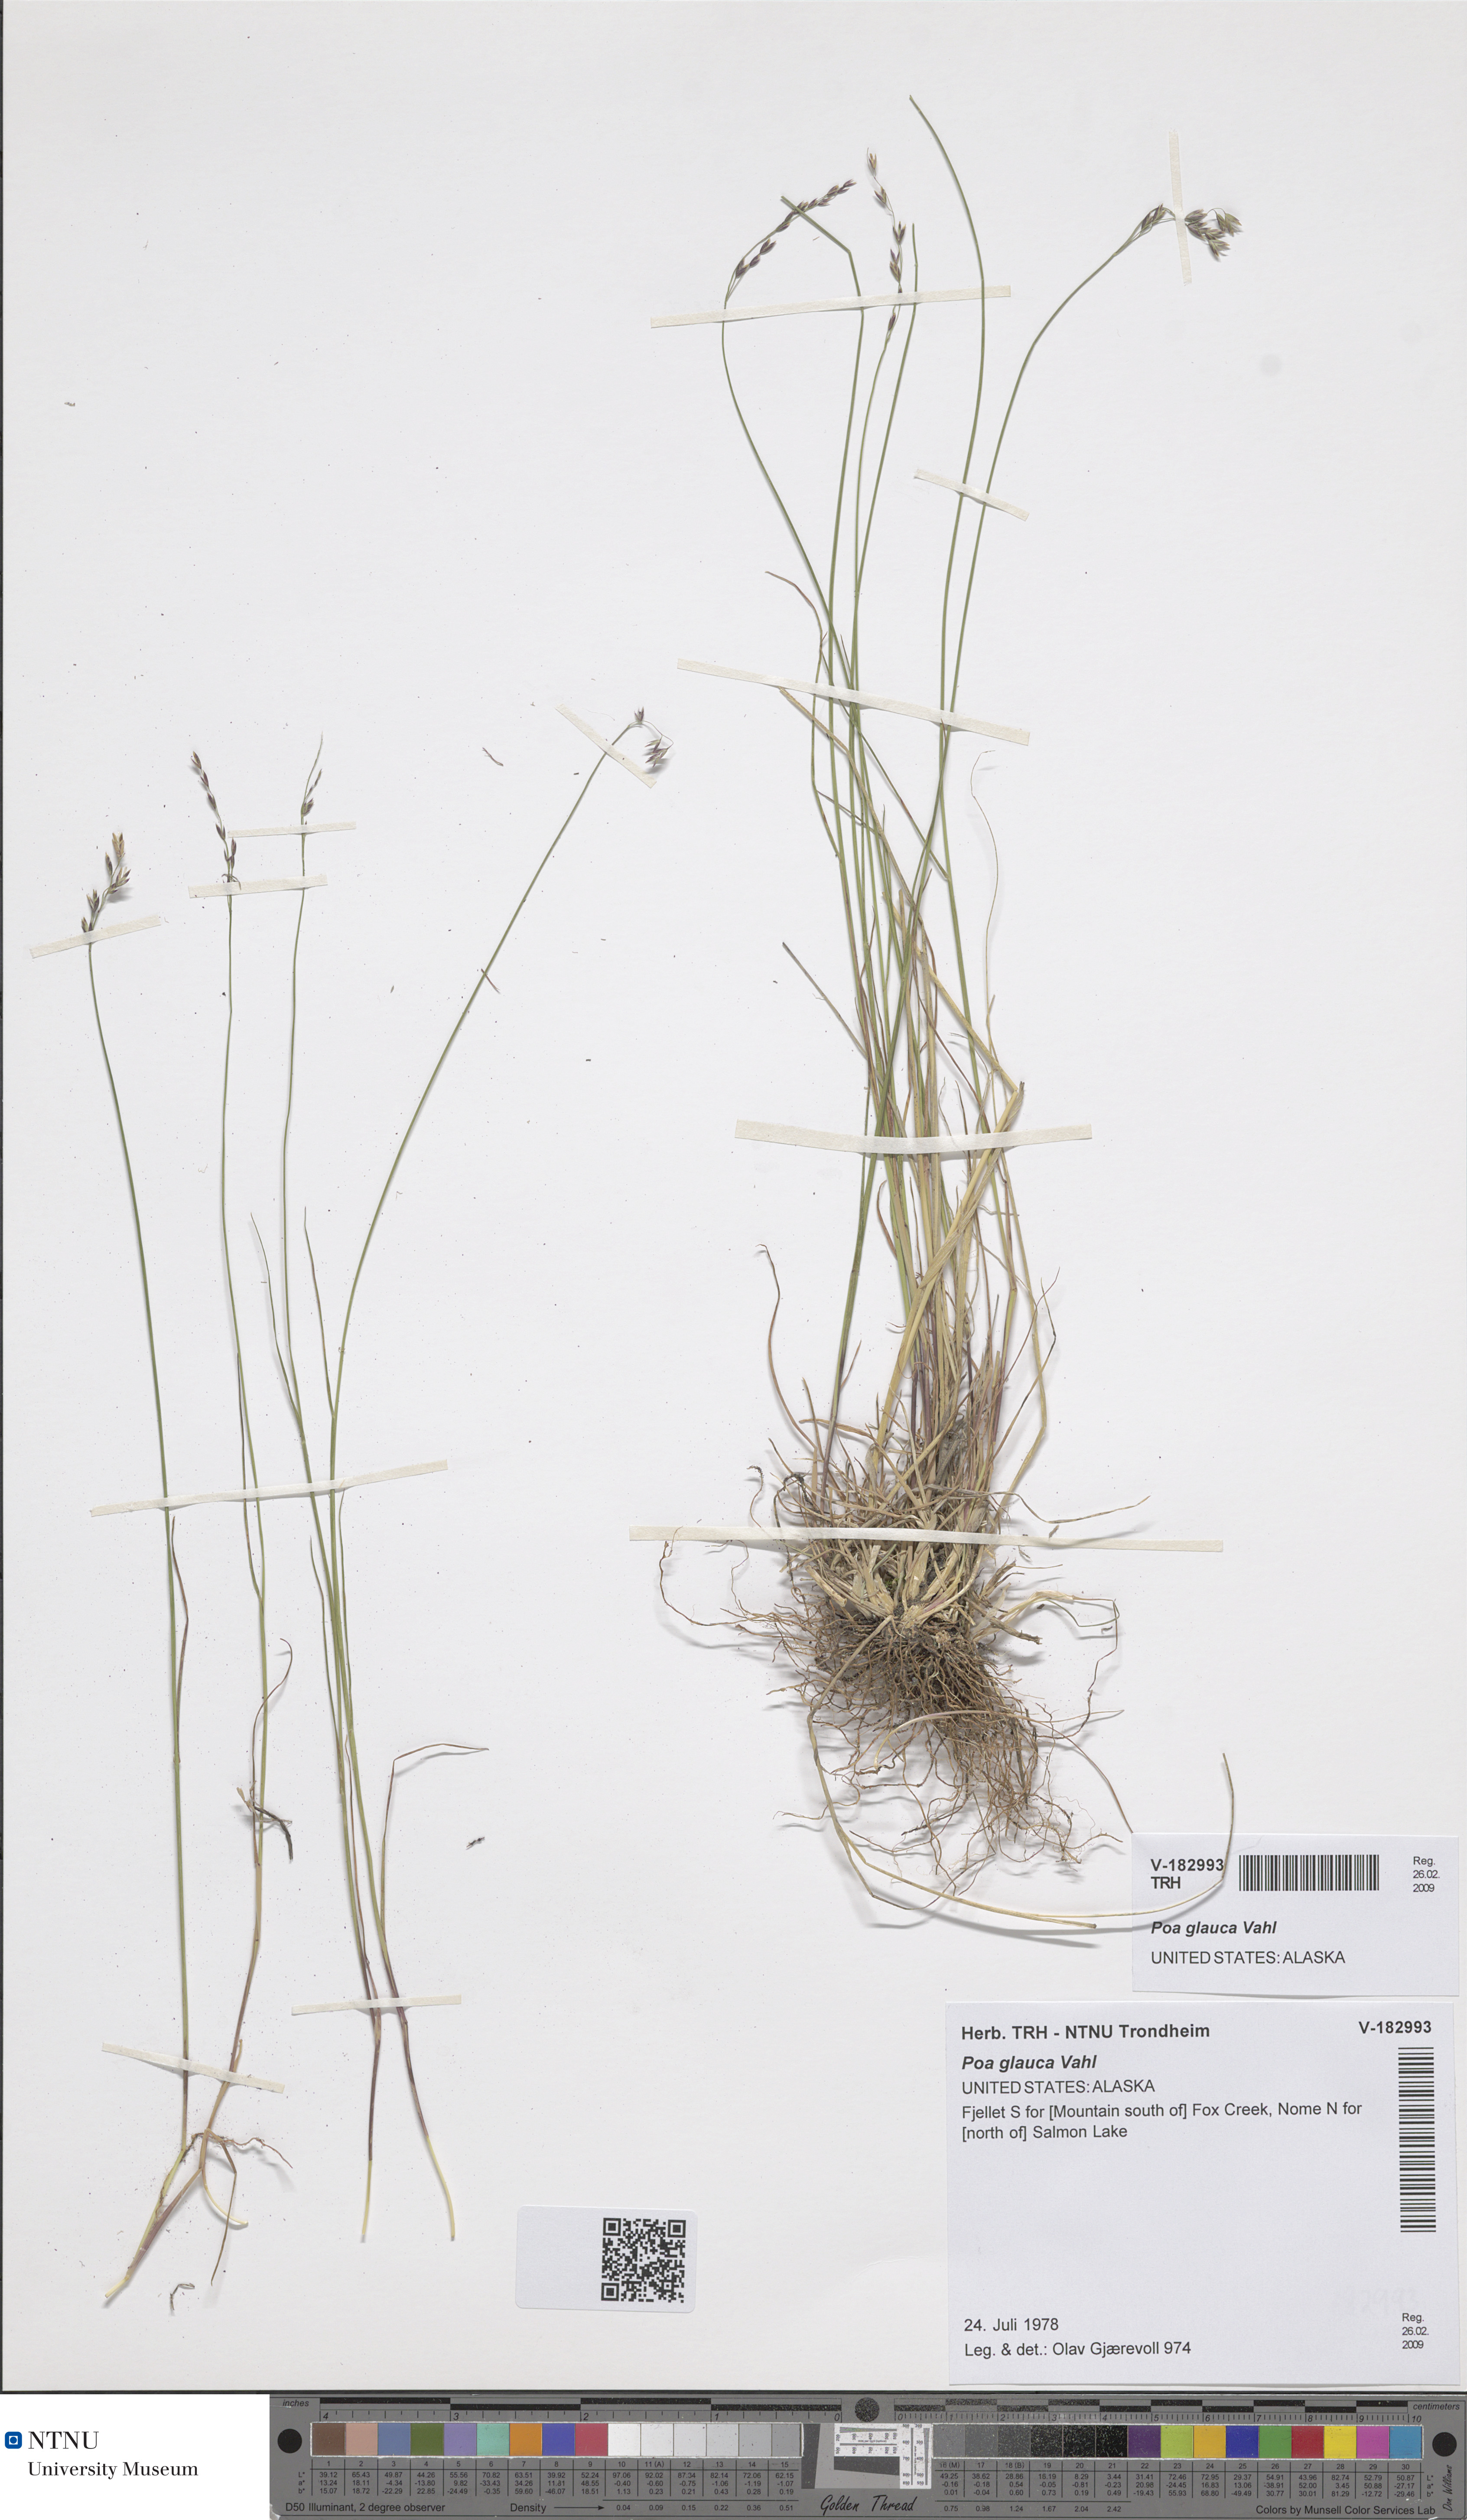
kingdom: Plantae
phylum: Tracheophyta
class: Liliopsida
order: Poales
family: Poaceae
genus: Poa
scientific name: Poa glauca
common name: Glaucous bluegrass
